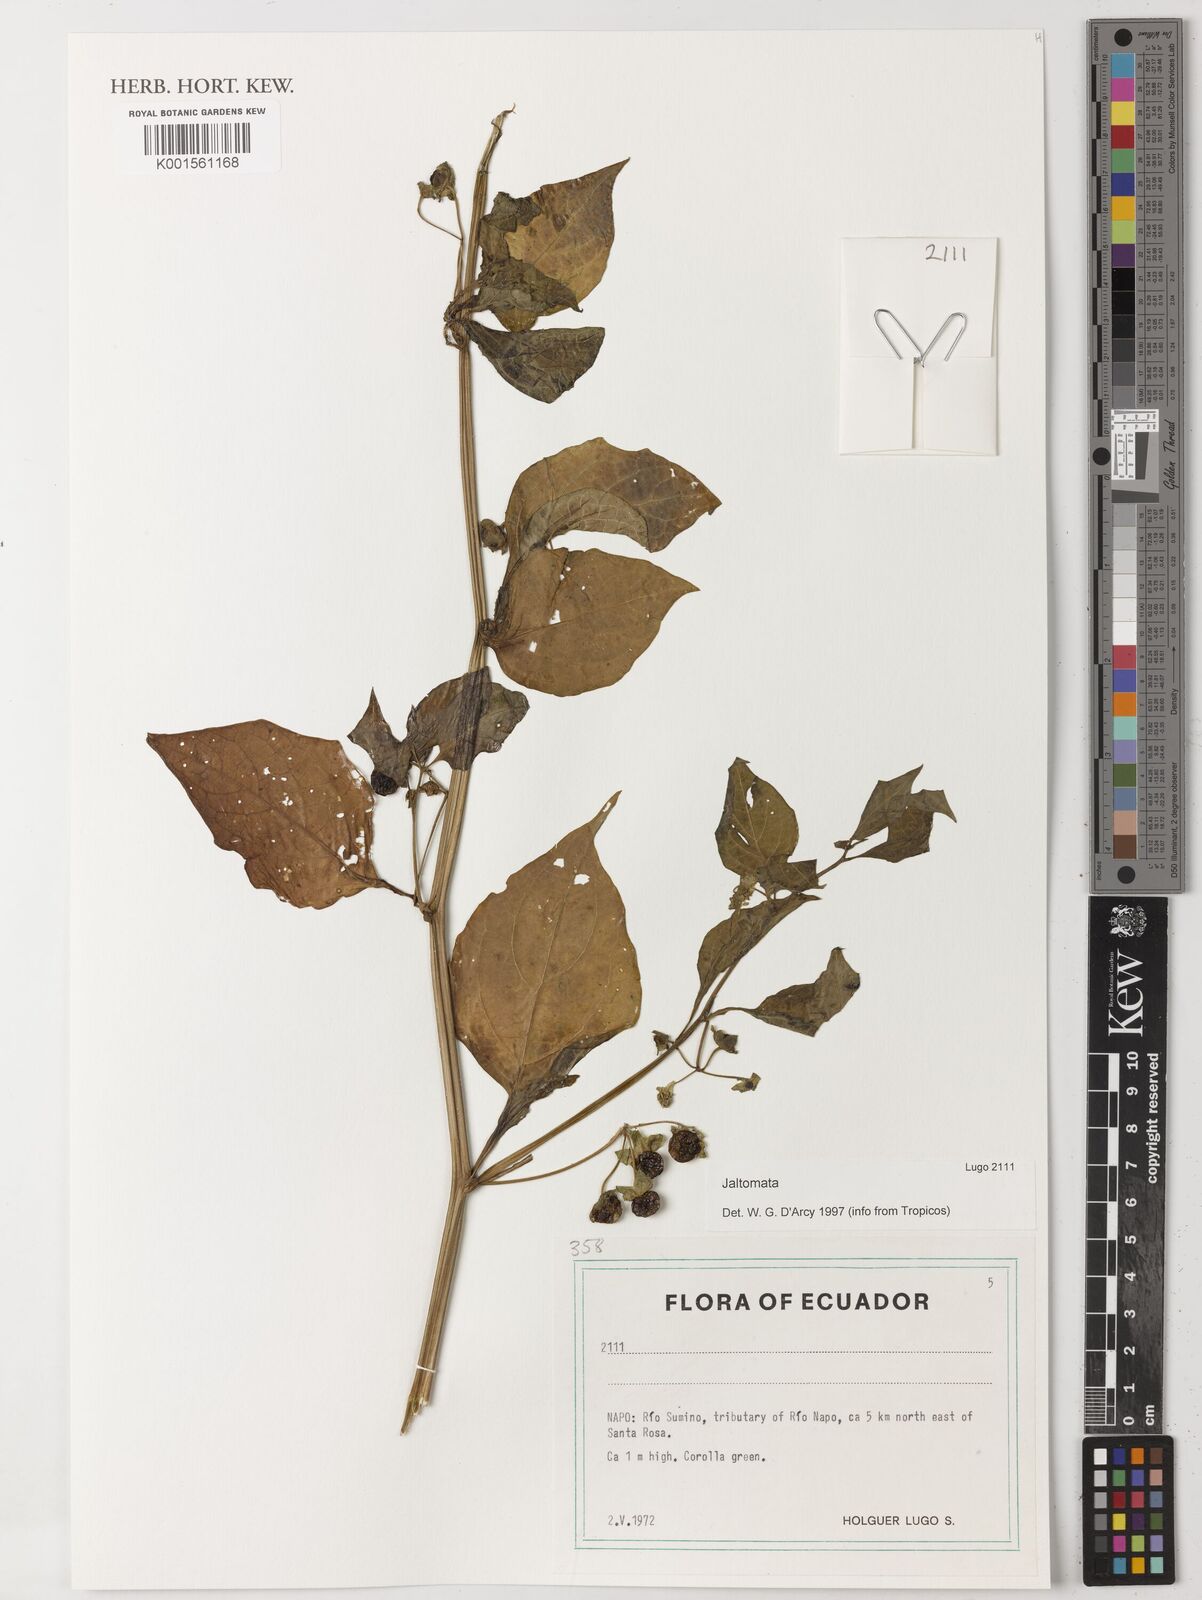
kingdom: Plantae
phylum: Tracheophyta
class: Magnoliopsida
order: Solanales
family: Solanaceae
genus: Jaltomata
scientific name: Jaltomata
